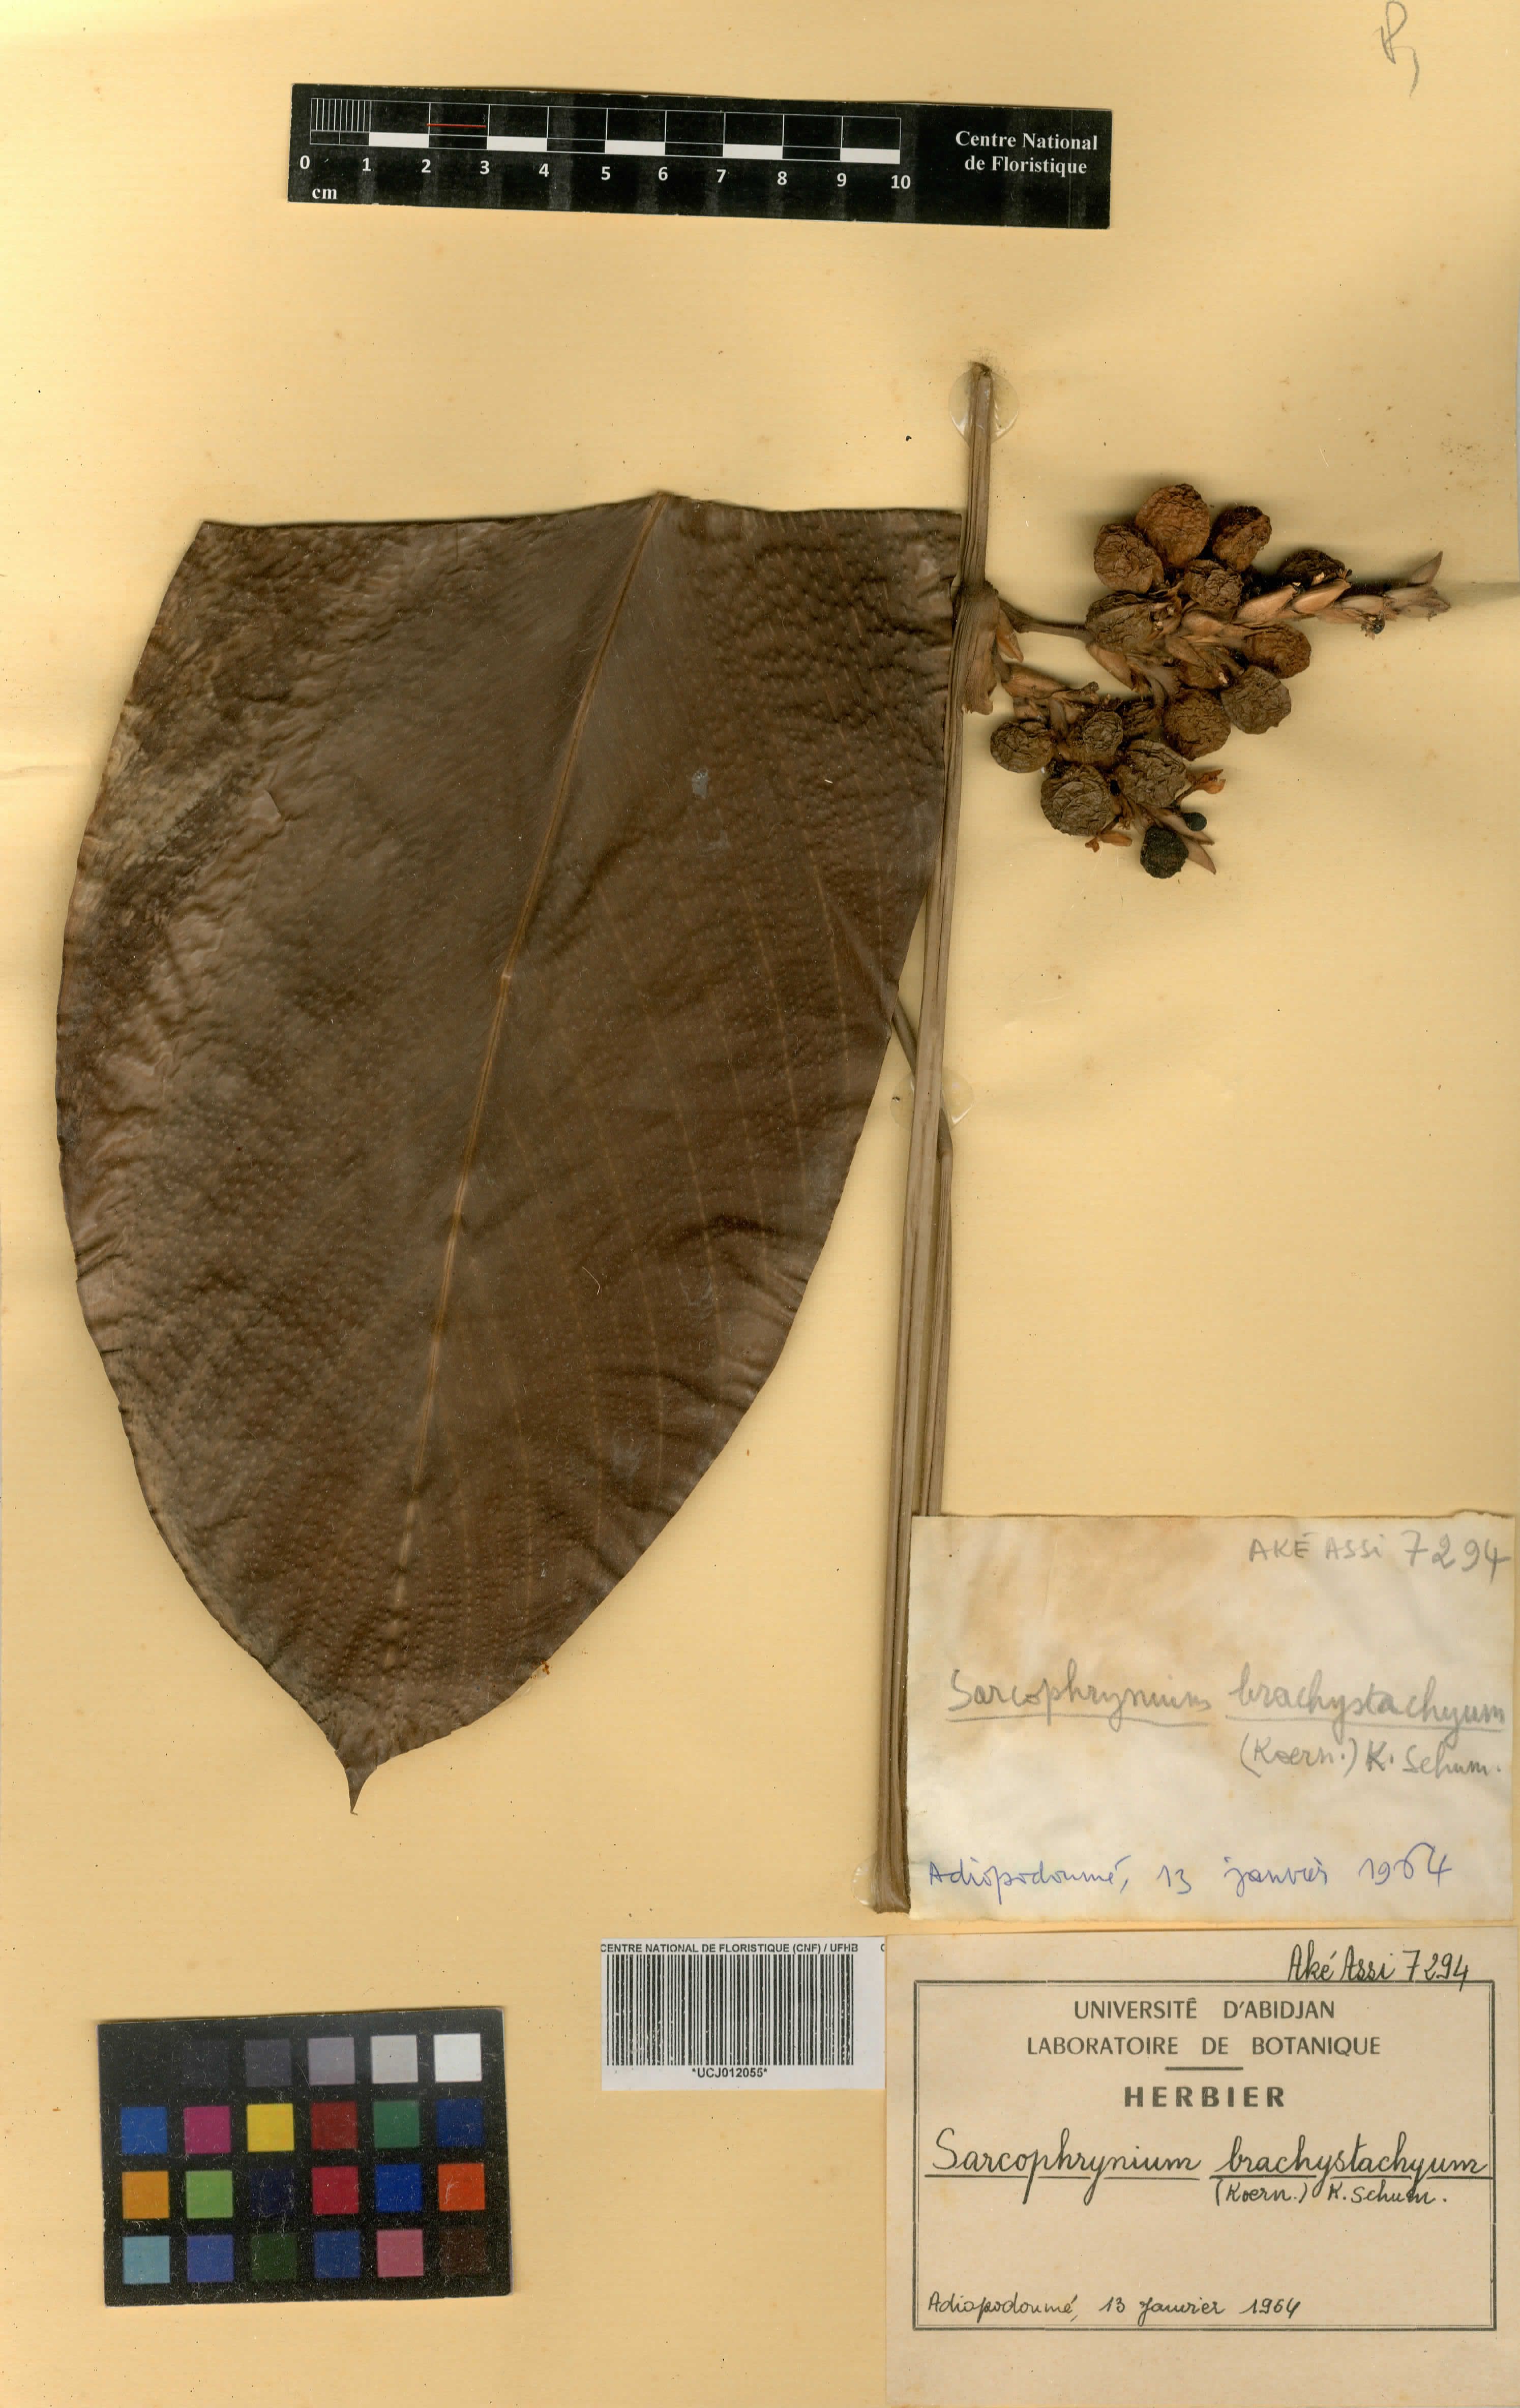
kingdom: Plantae
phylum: Tracheophyta
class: Liliopsida
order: Zingiberales
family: Marantaceae
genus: Sarcophrynium
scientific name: Sarcophrynium brachystachyum
